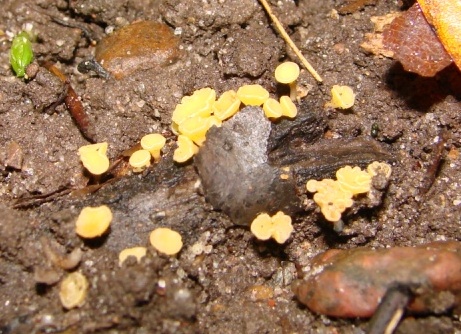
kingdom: Fungi
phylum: Ascomycota
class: Leotiomycetes
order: Helotiales
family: Helotiaceae
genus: Hymenoscyphus
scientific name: Hymenoscyphus serotinus
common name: krumsporet stilkskive
